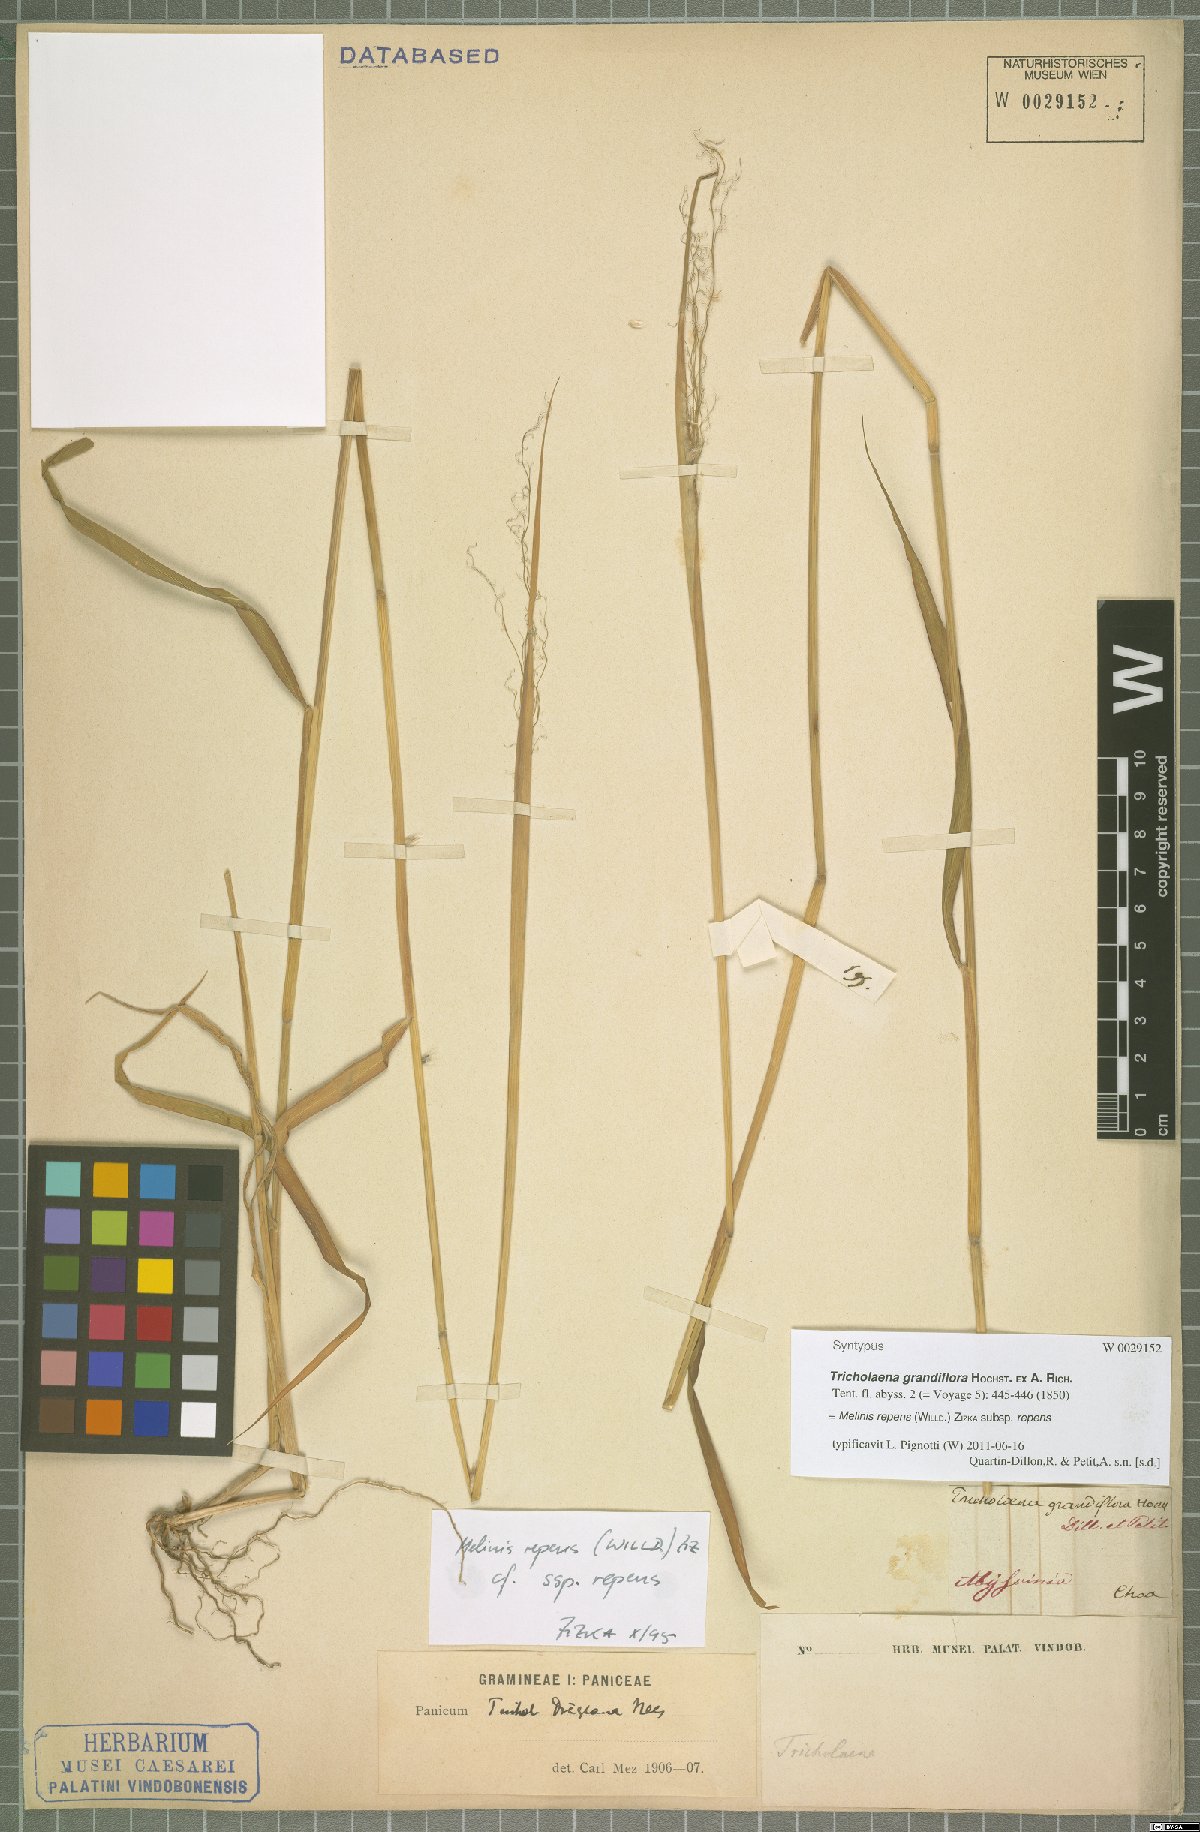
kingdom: Plantae
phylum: Tracheophyta
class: Liliopsida
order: Poales
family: Poaceae
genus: Melinis
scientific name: Melinis repens
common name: Rose natal grass
